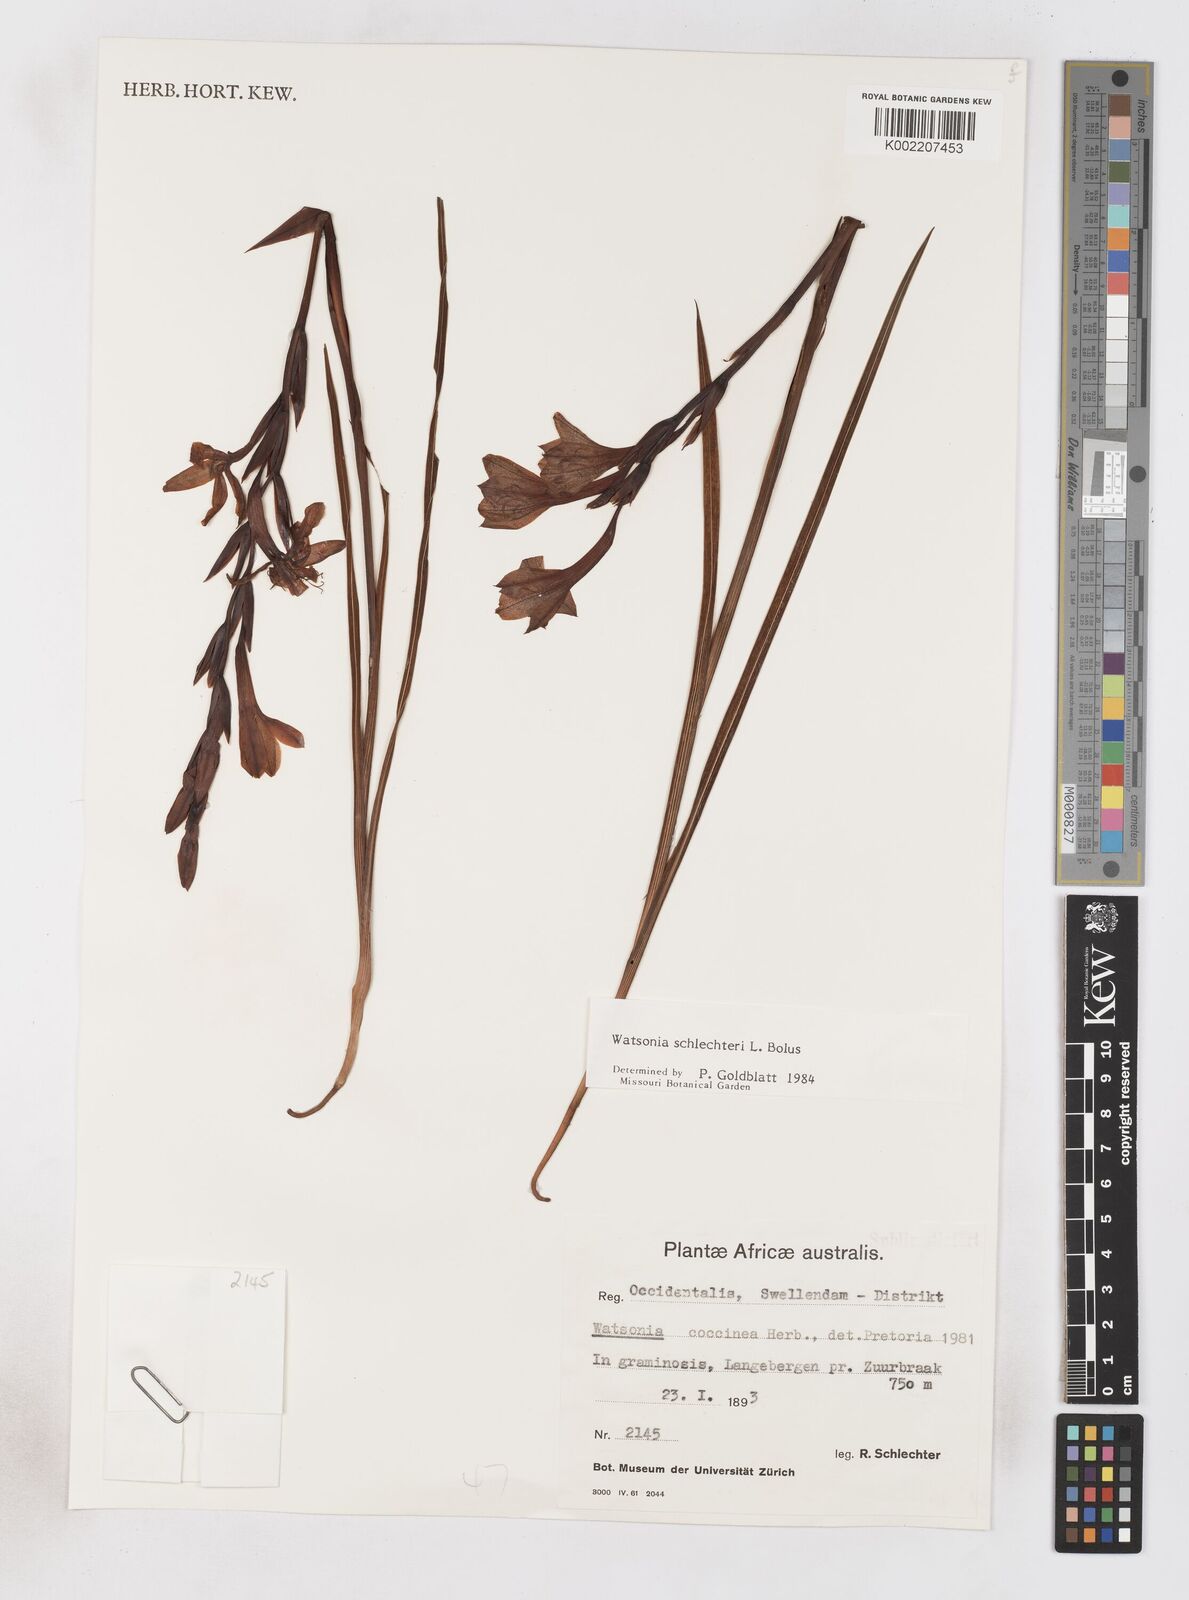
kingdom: Plantae
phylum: Tracheophyta
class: Liliopsida
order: Asparagales
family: Iridaceae
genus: Watsonia
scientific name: Watsonia schlechteri
